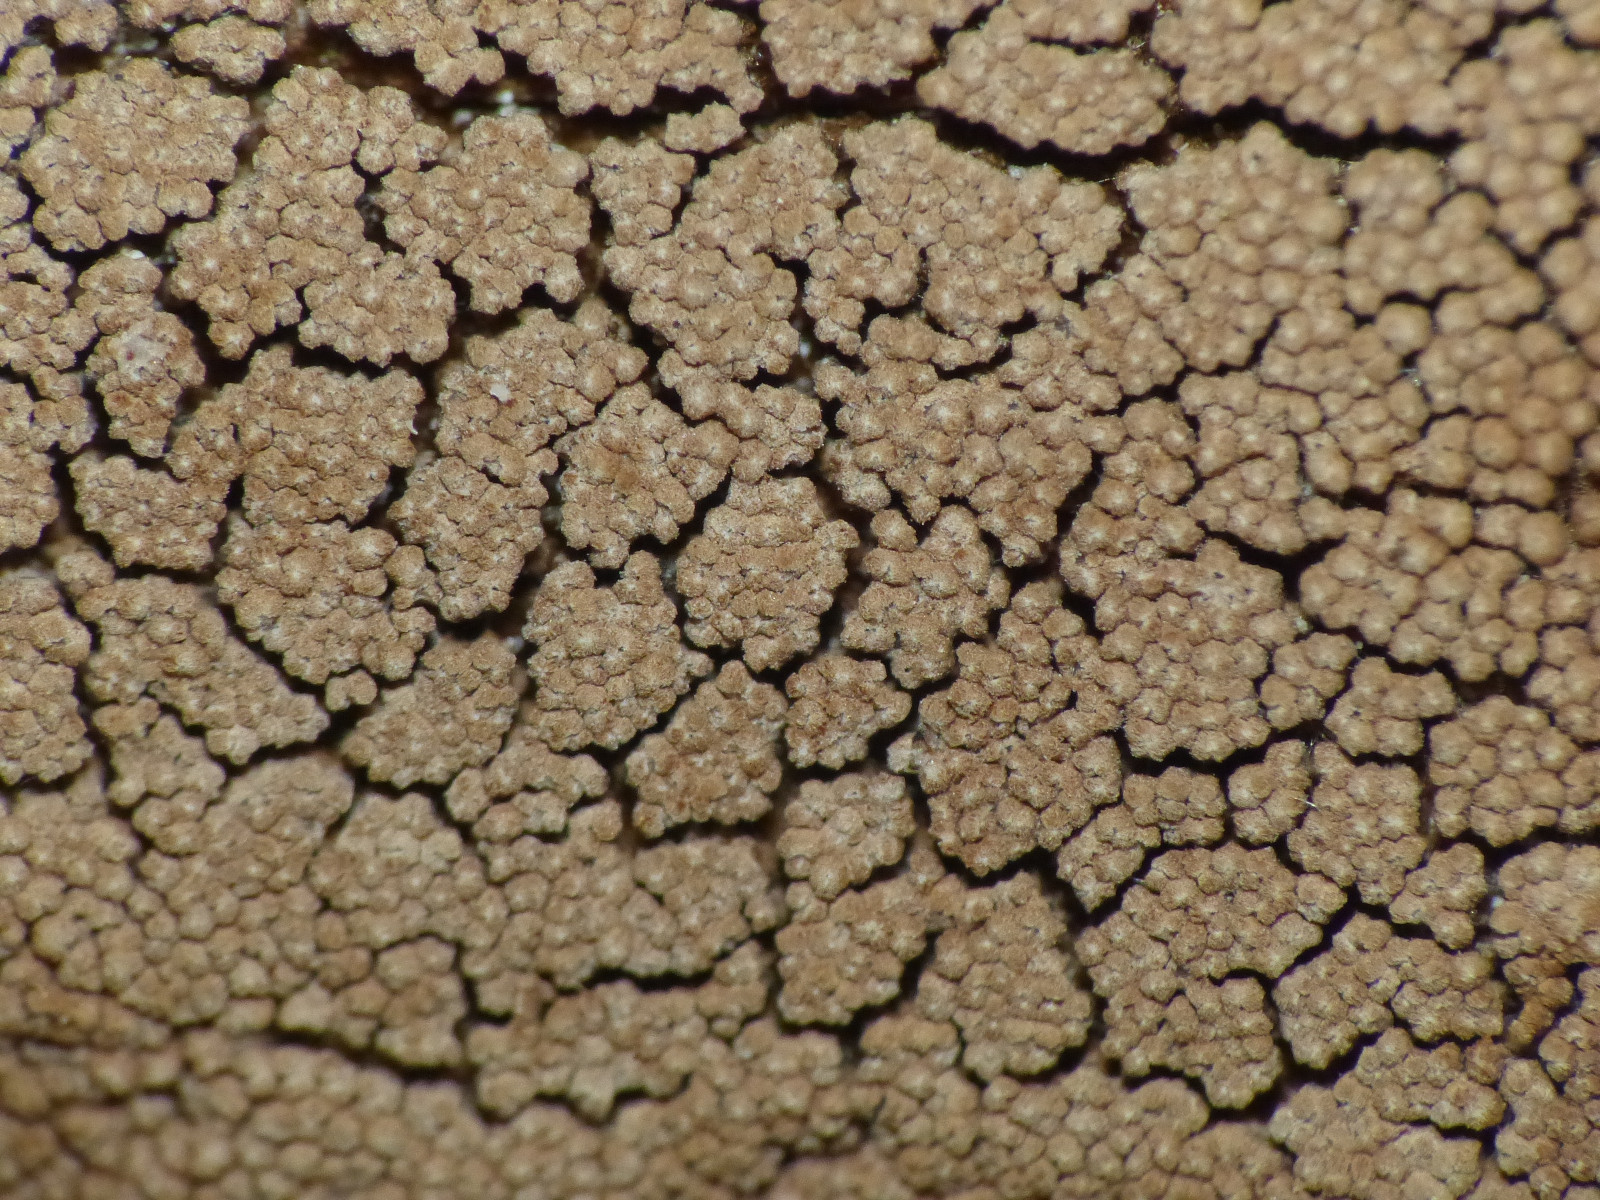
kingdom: Fungi
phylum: Basidiomycota
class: Agaricomycetes
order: Agaricales
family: Niaceae
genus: Merismodes
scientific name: Merismodes anomala
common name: almindelig læderskål
